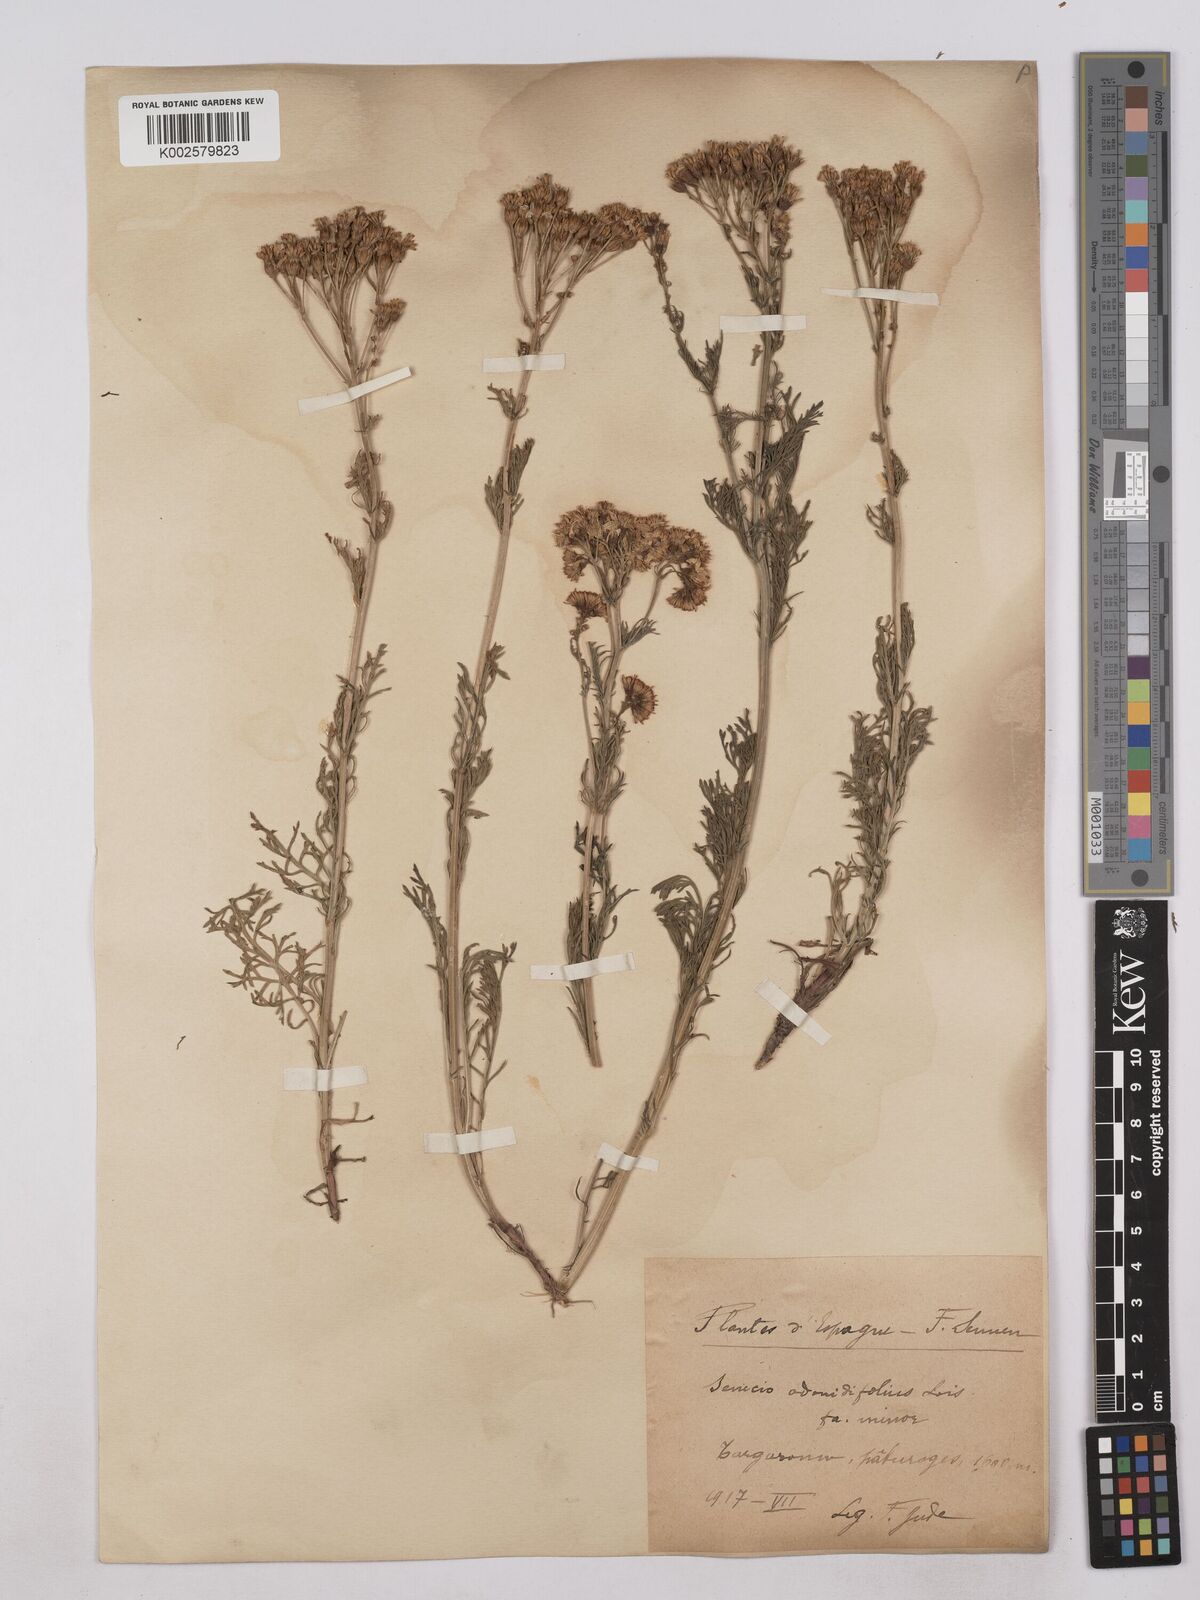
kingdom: Plantae
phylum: Tracheophyta
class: Magnoliopsida
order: Asterales
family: Asteraceae
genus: Jacobaea
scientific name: Jacobaea adonidifolia
